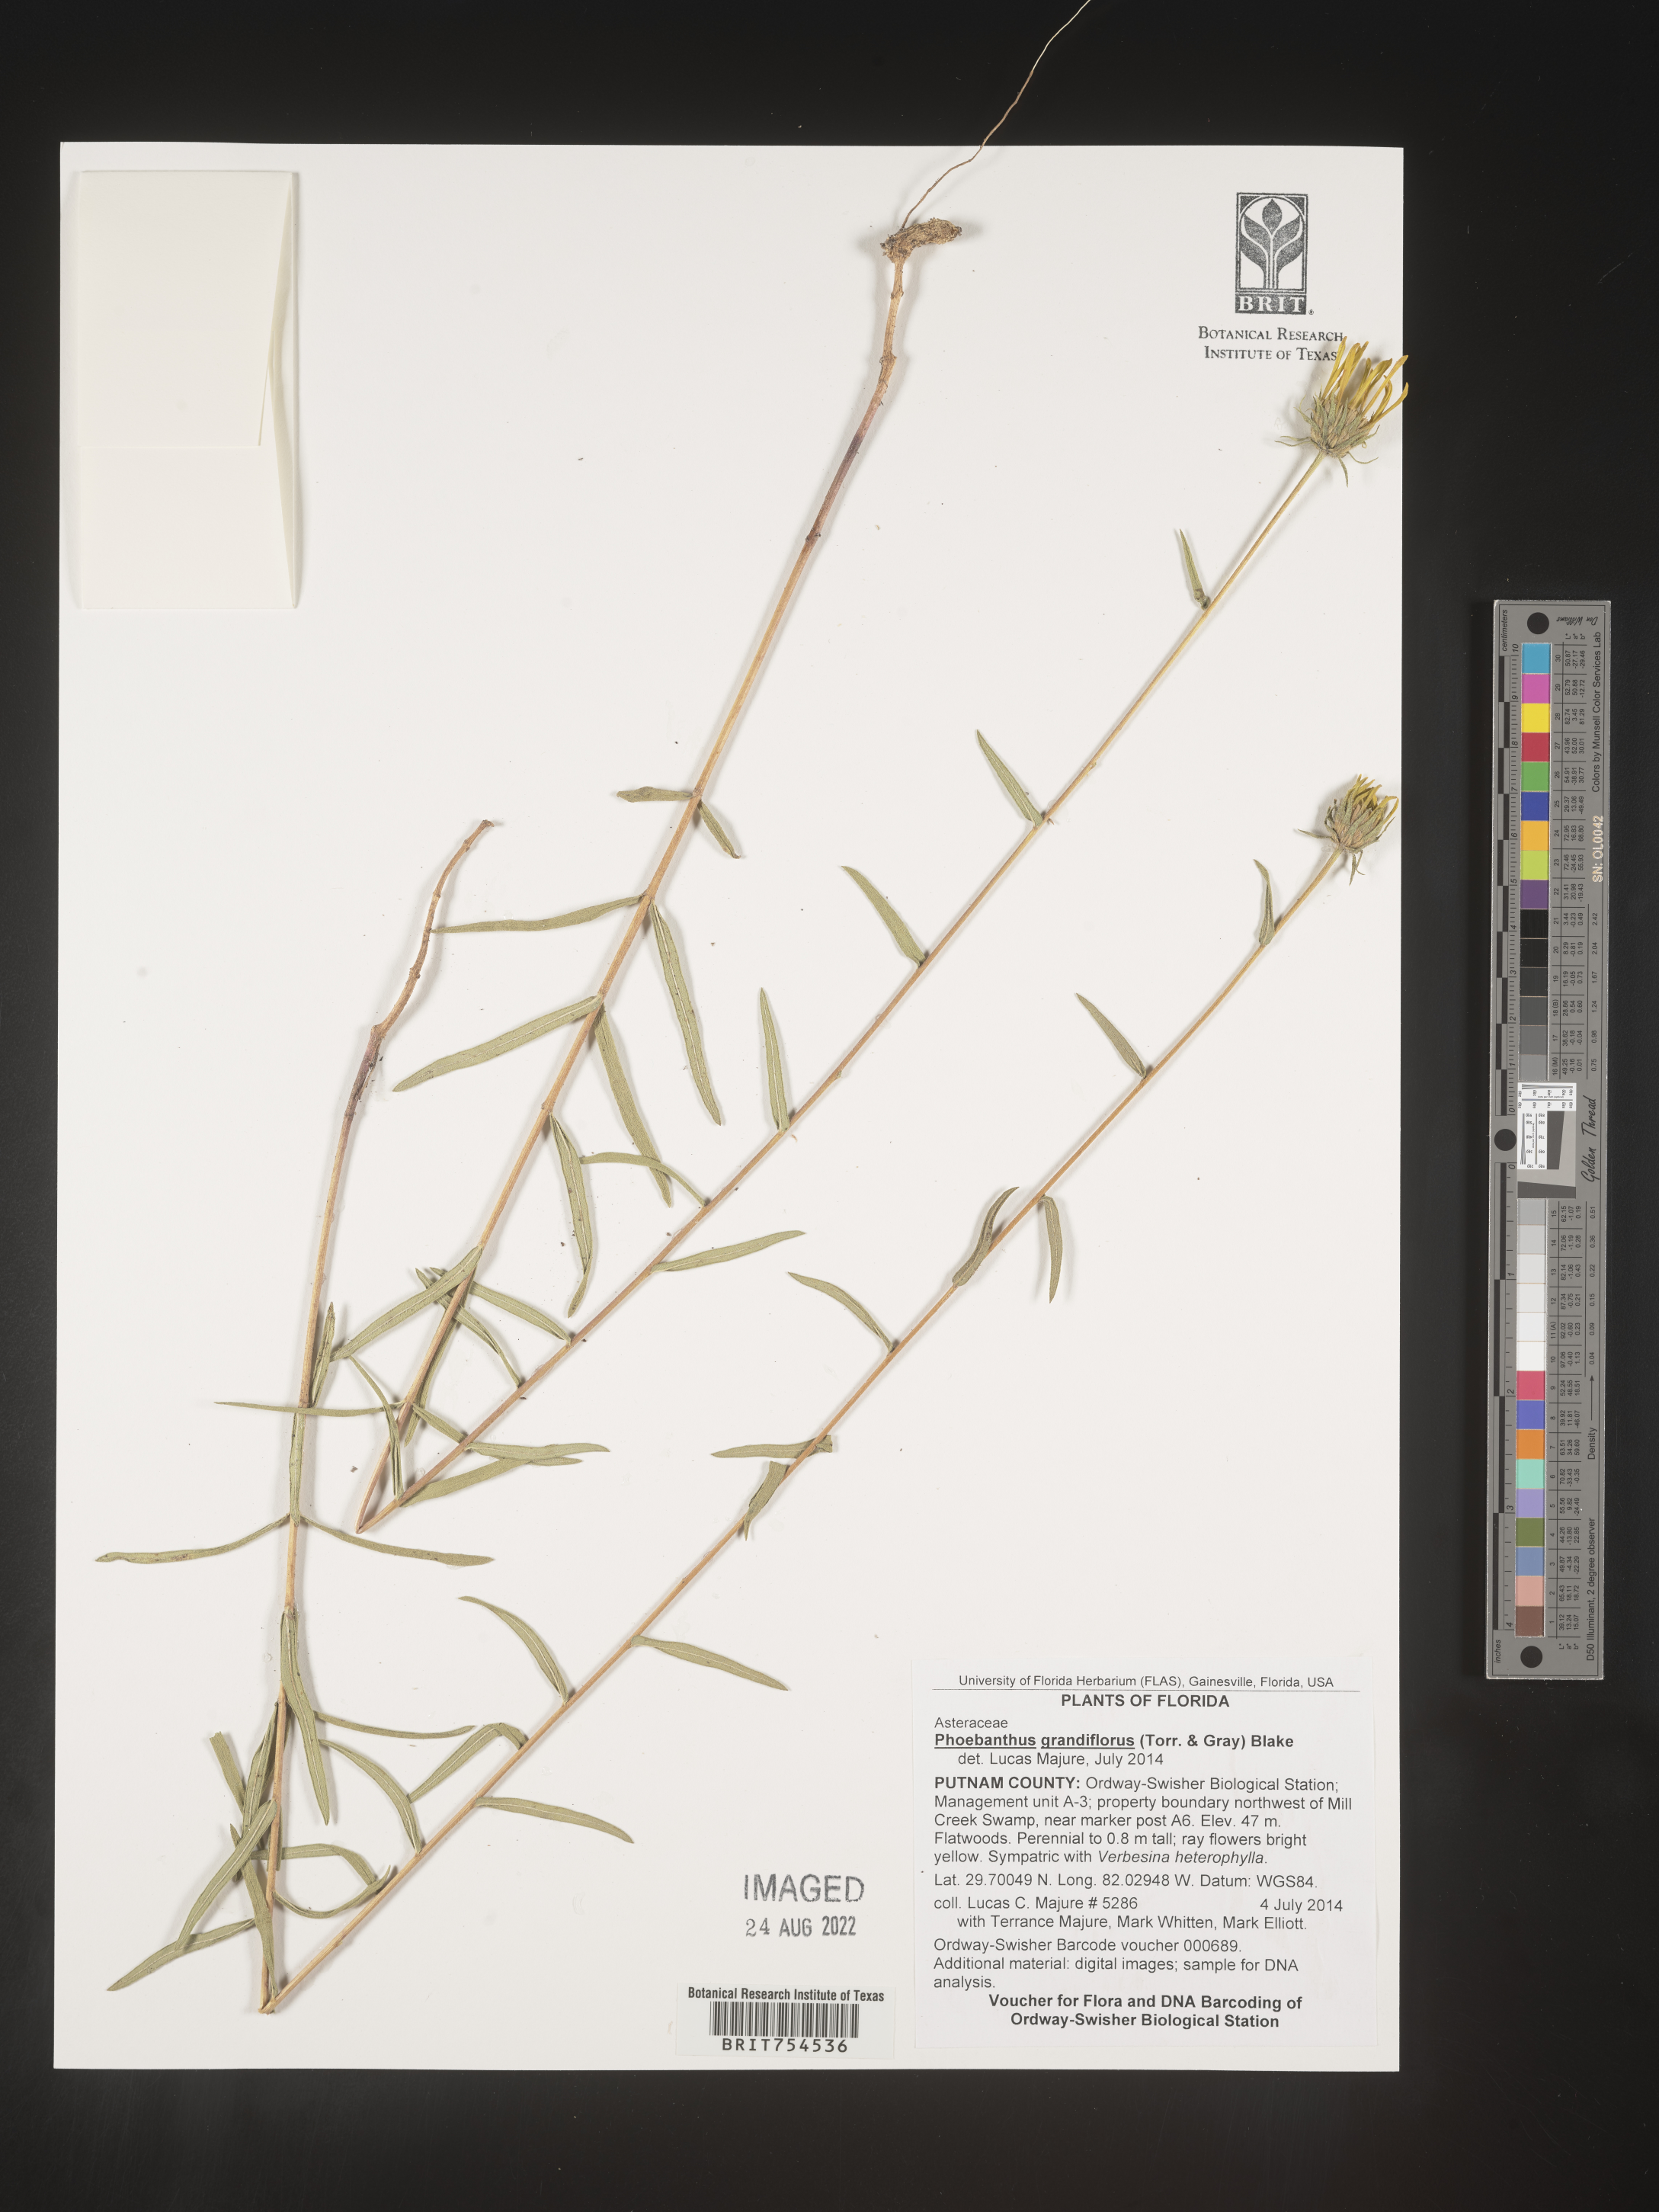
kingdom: Plantae
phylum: Tracheophyta
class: Magnoliopsida
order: Asterales
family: Asteraceae
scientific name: Asteraceae
